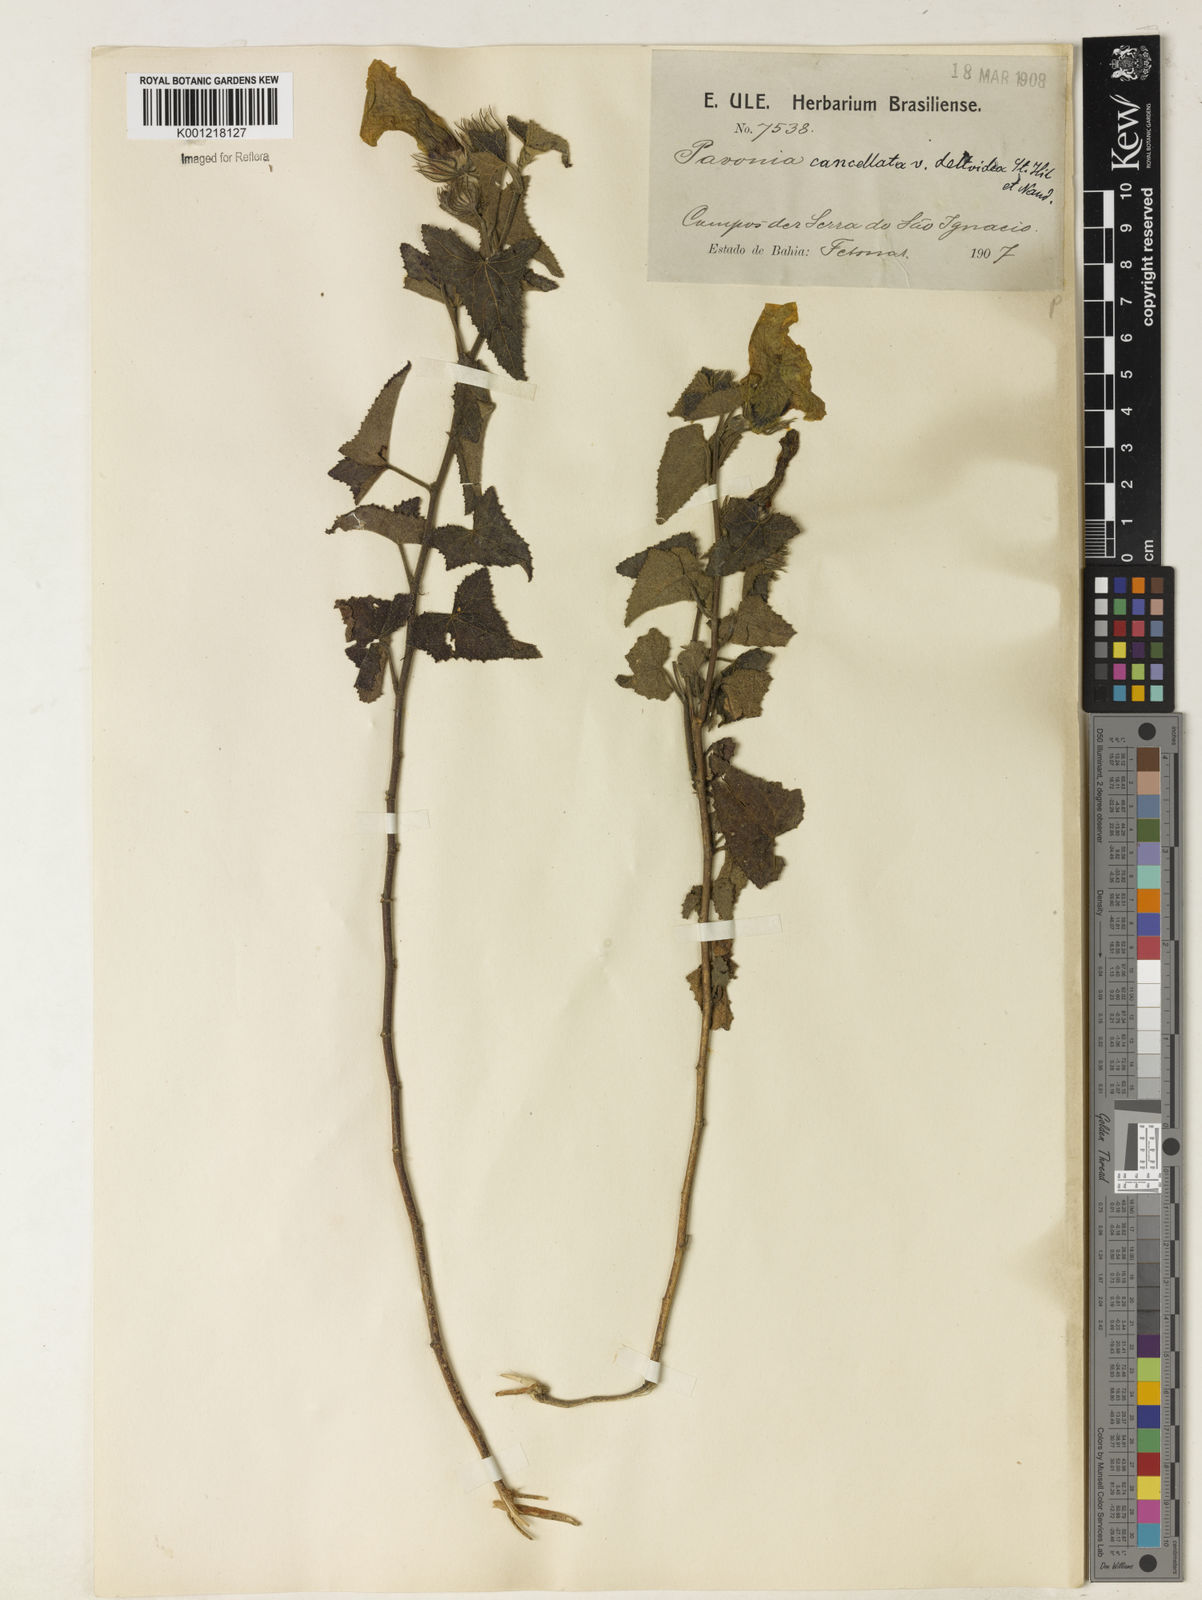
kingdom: Plantae
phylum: Tracheophyta
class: Magnoliopsida
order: Malvales
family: Malvaceae
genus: Pavonia
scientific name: Pavonia cancellata
